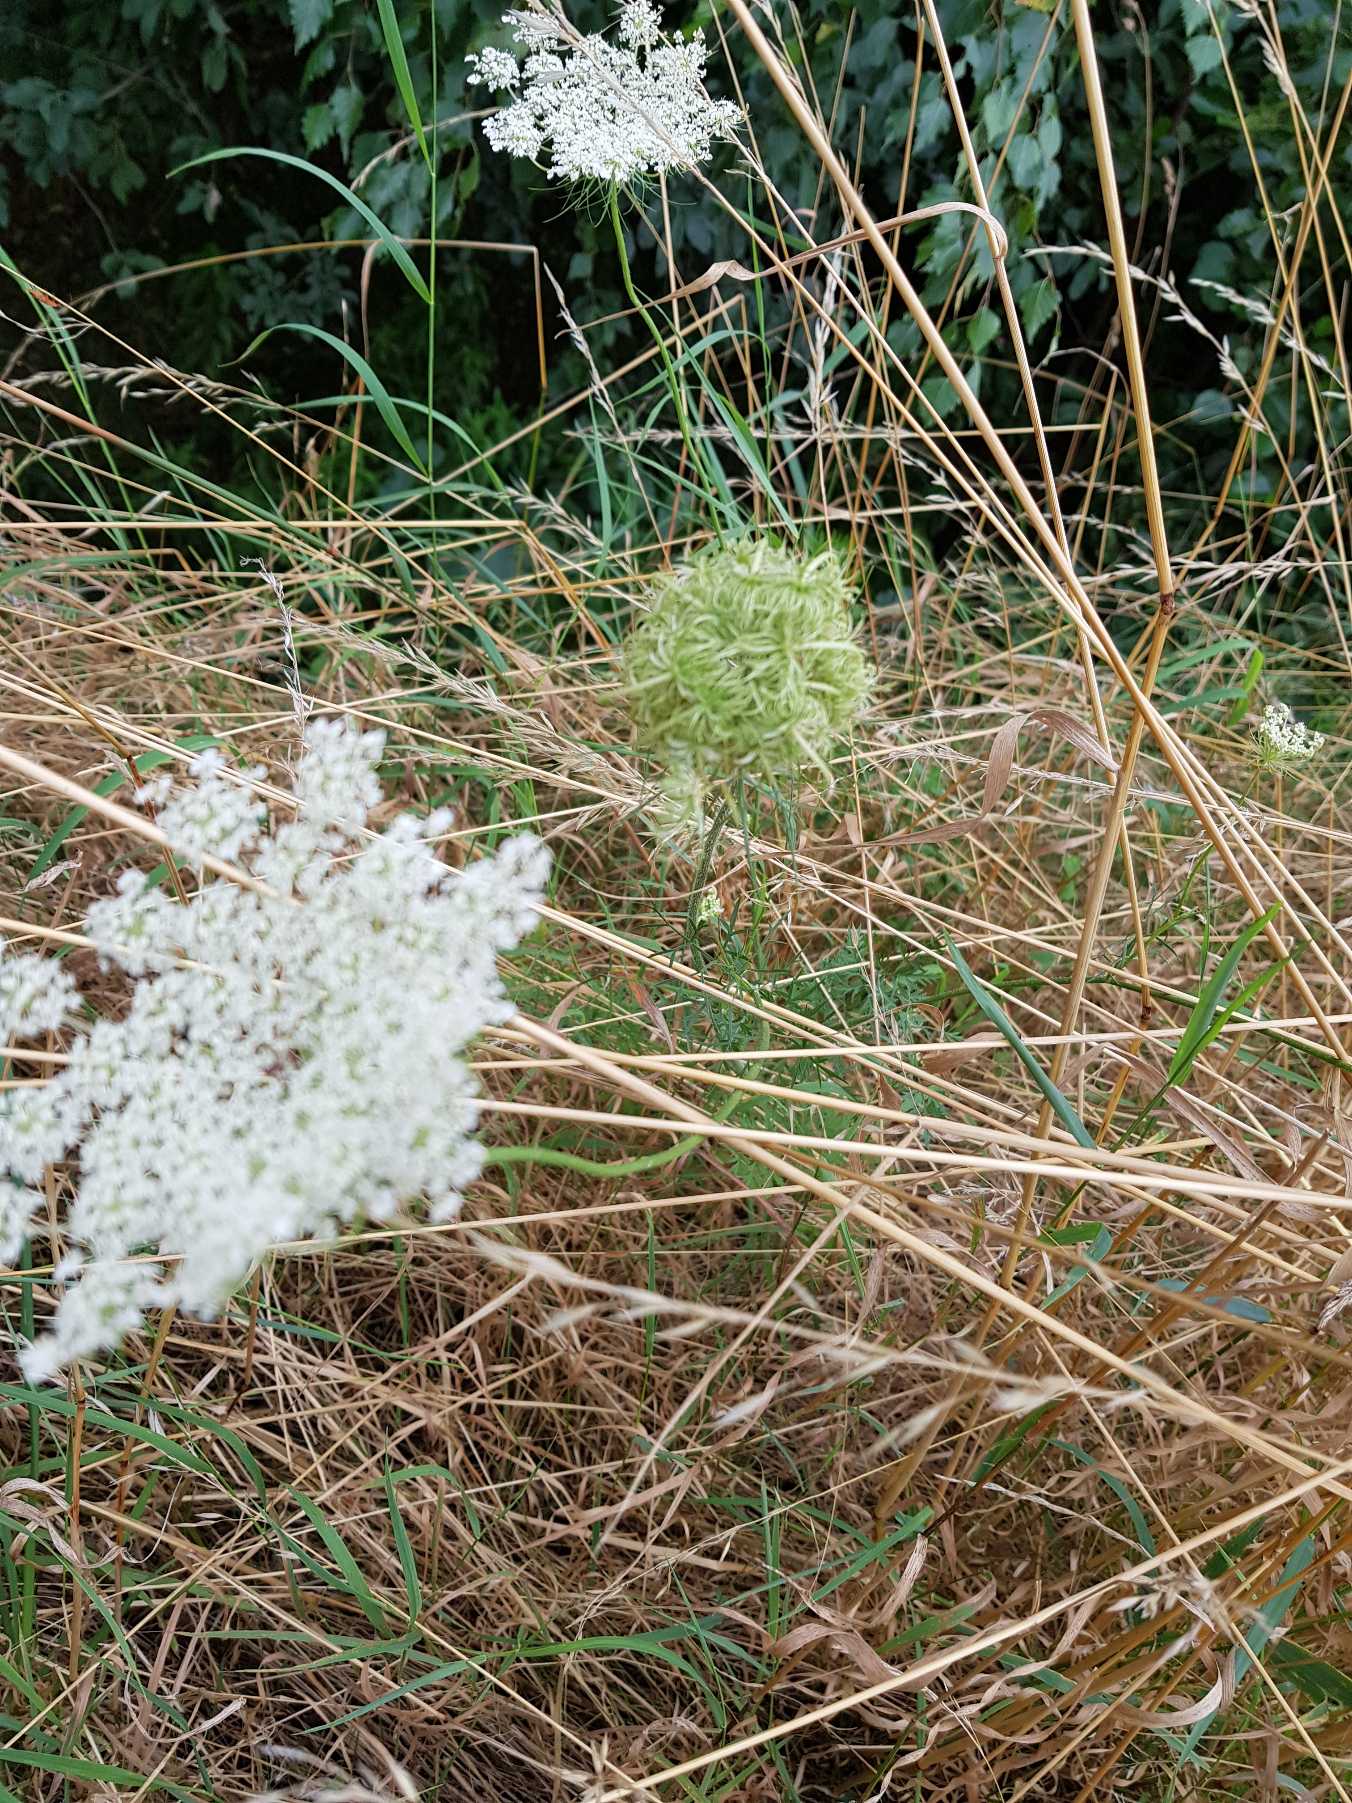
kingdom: Plantae
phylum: Tracheophyta
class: Magnoliopsida
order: Apiales
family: Apiaceae
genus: Daucus
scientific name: Daucus carota
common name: Vild gulerod
